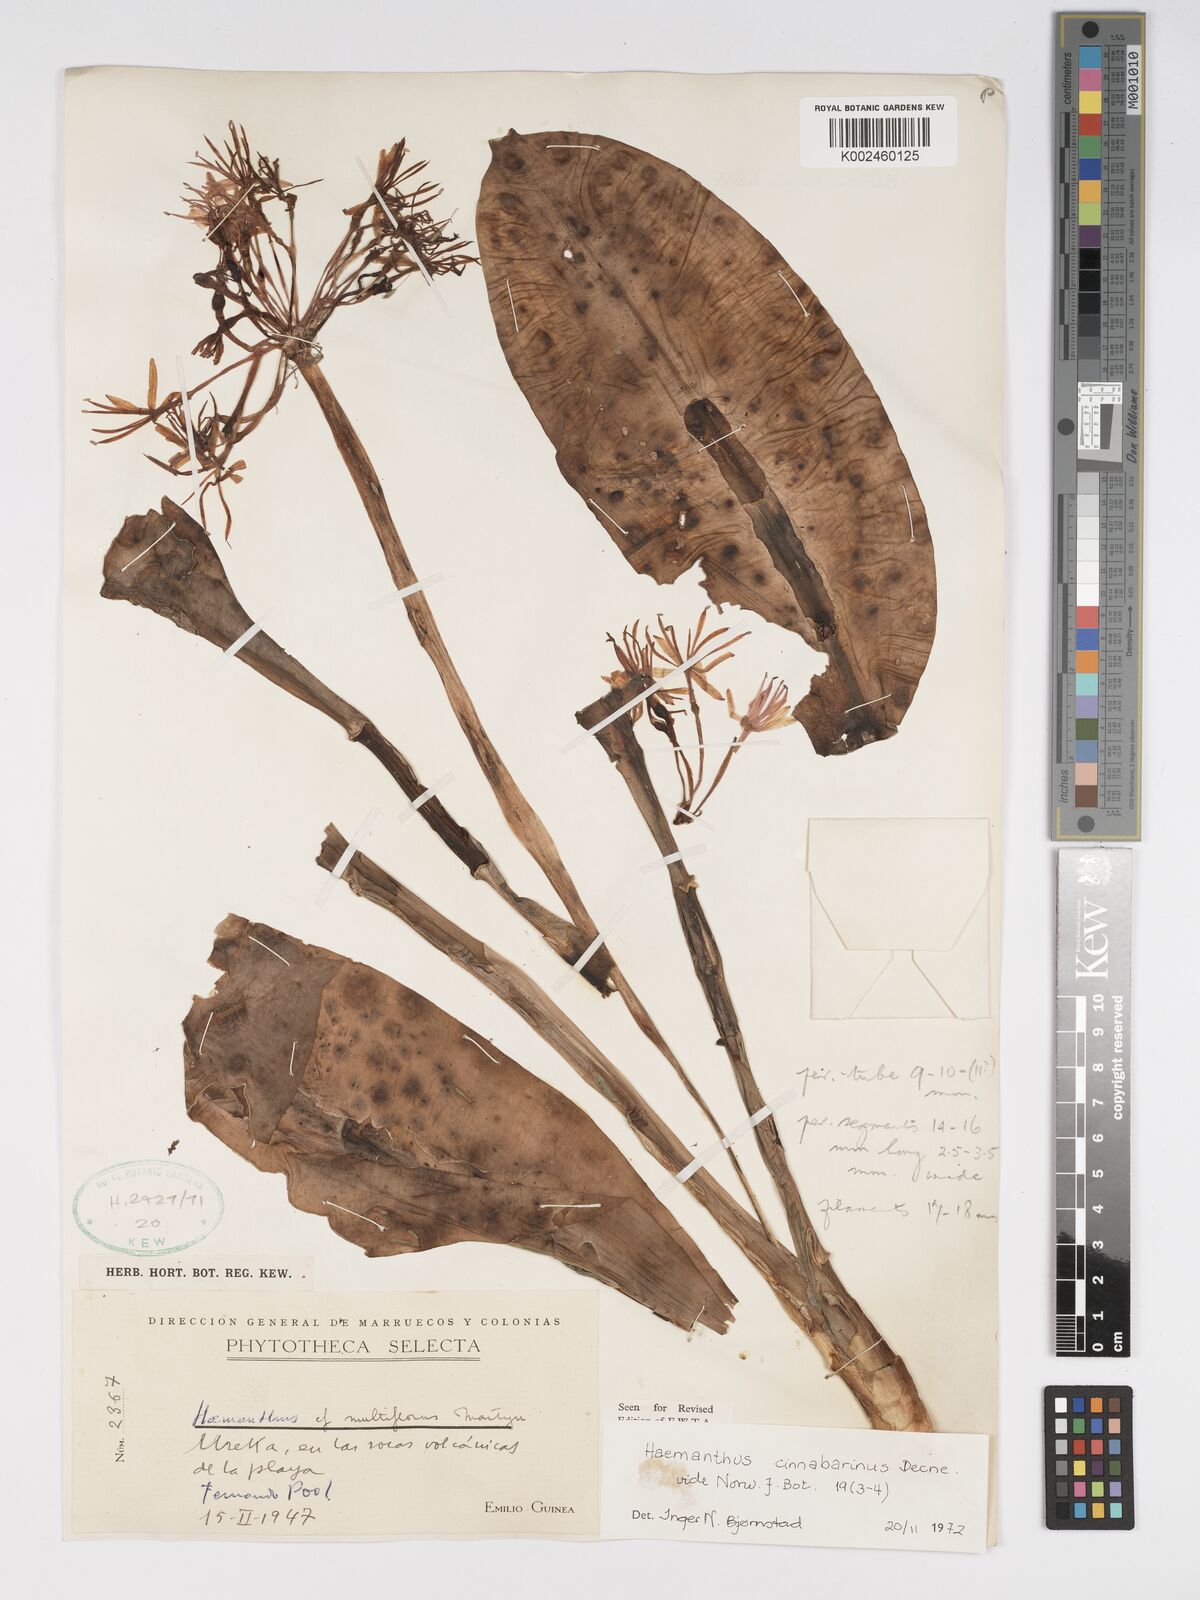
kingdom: Plantae
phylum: Tracheophyta
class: Liliopsida
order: Asparagales
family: Amaryllidaceae
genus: Scadoxus
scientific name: Scadoxus cinnabarinus
